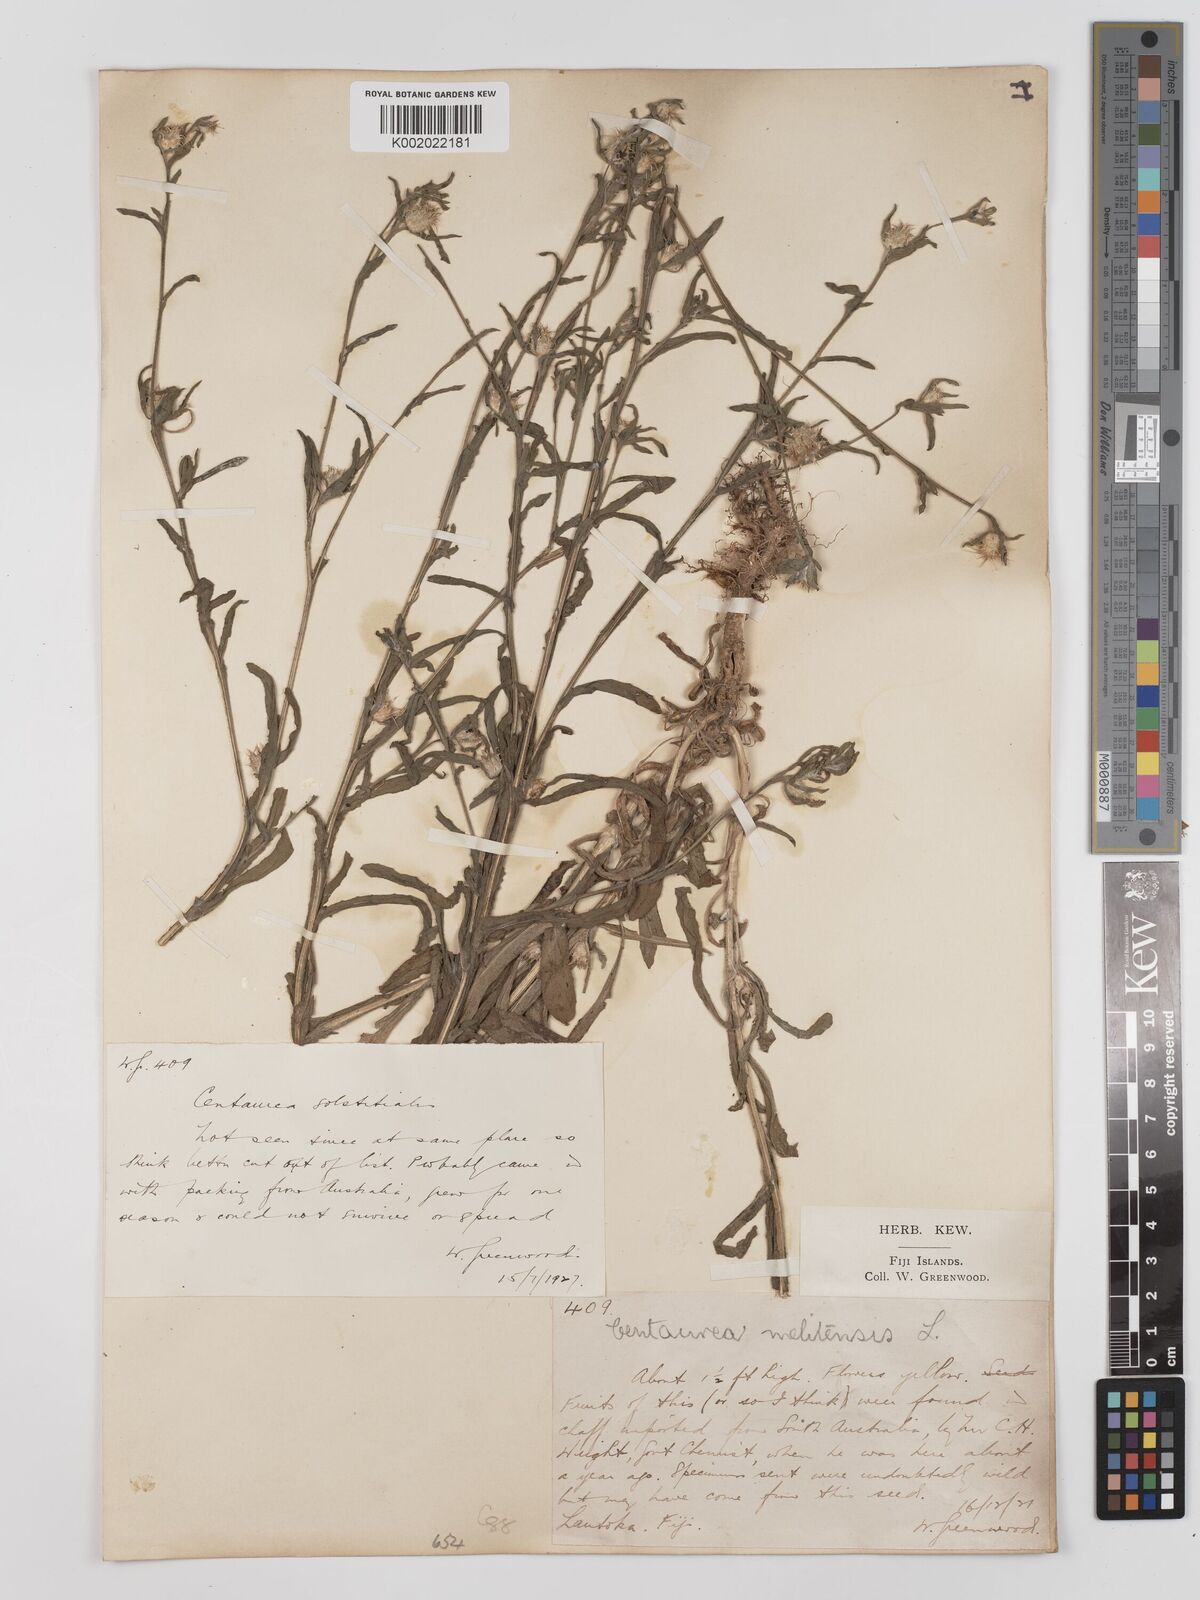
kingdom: Plantae
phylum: Tracheophyta
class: Magnoliopsida
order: Asterales
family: Asteraceae
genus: Centaurea
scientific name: Centaurea melitensis
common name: Maltese star-thistle
